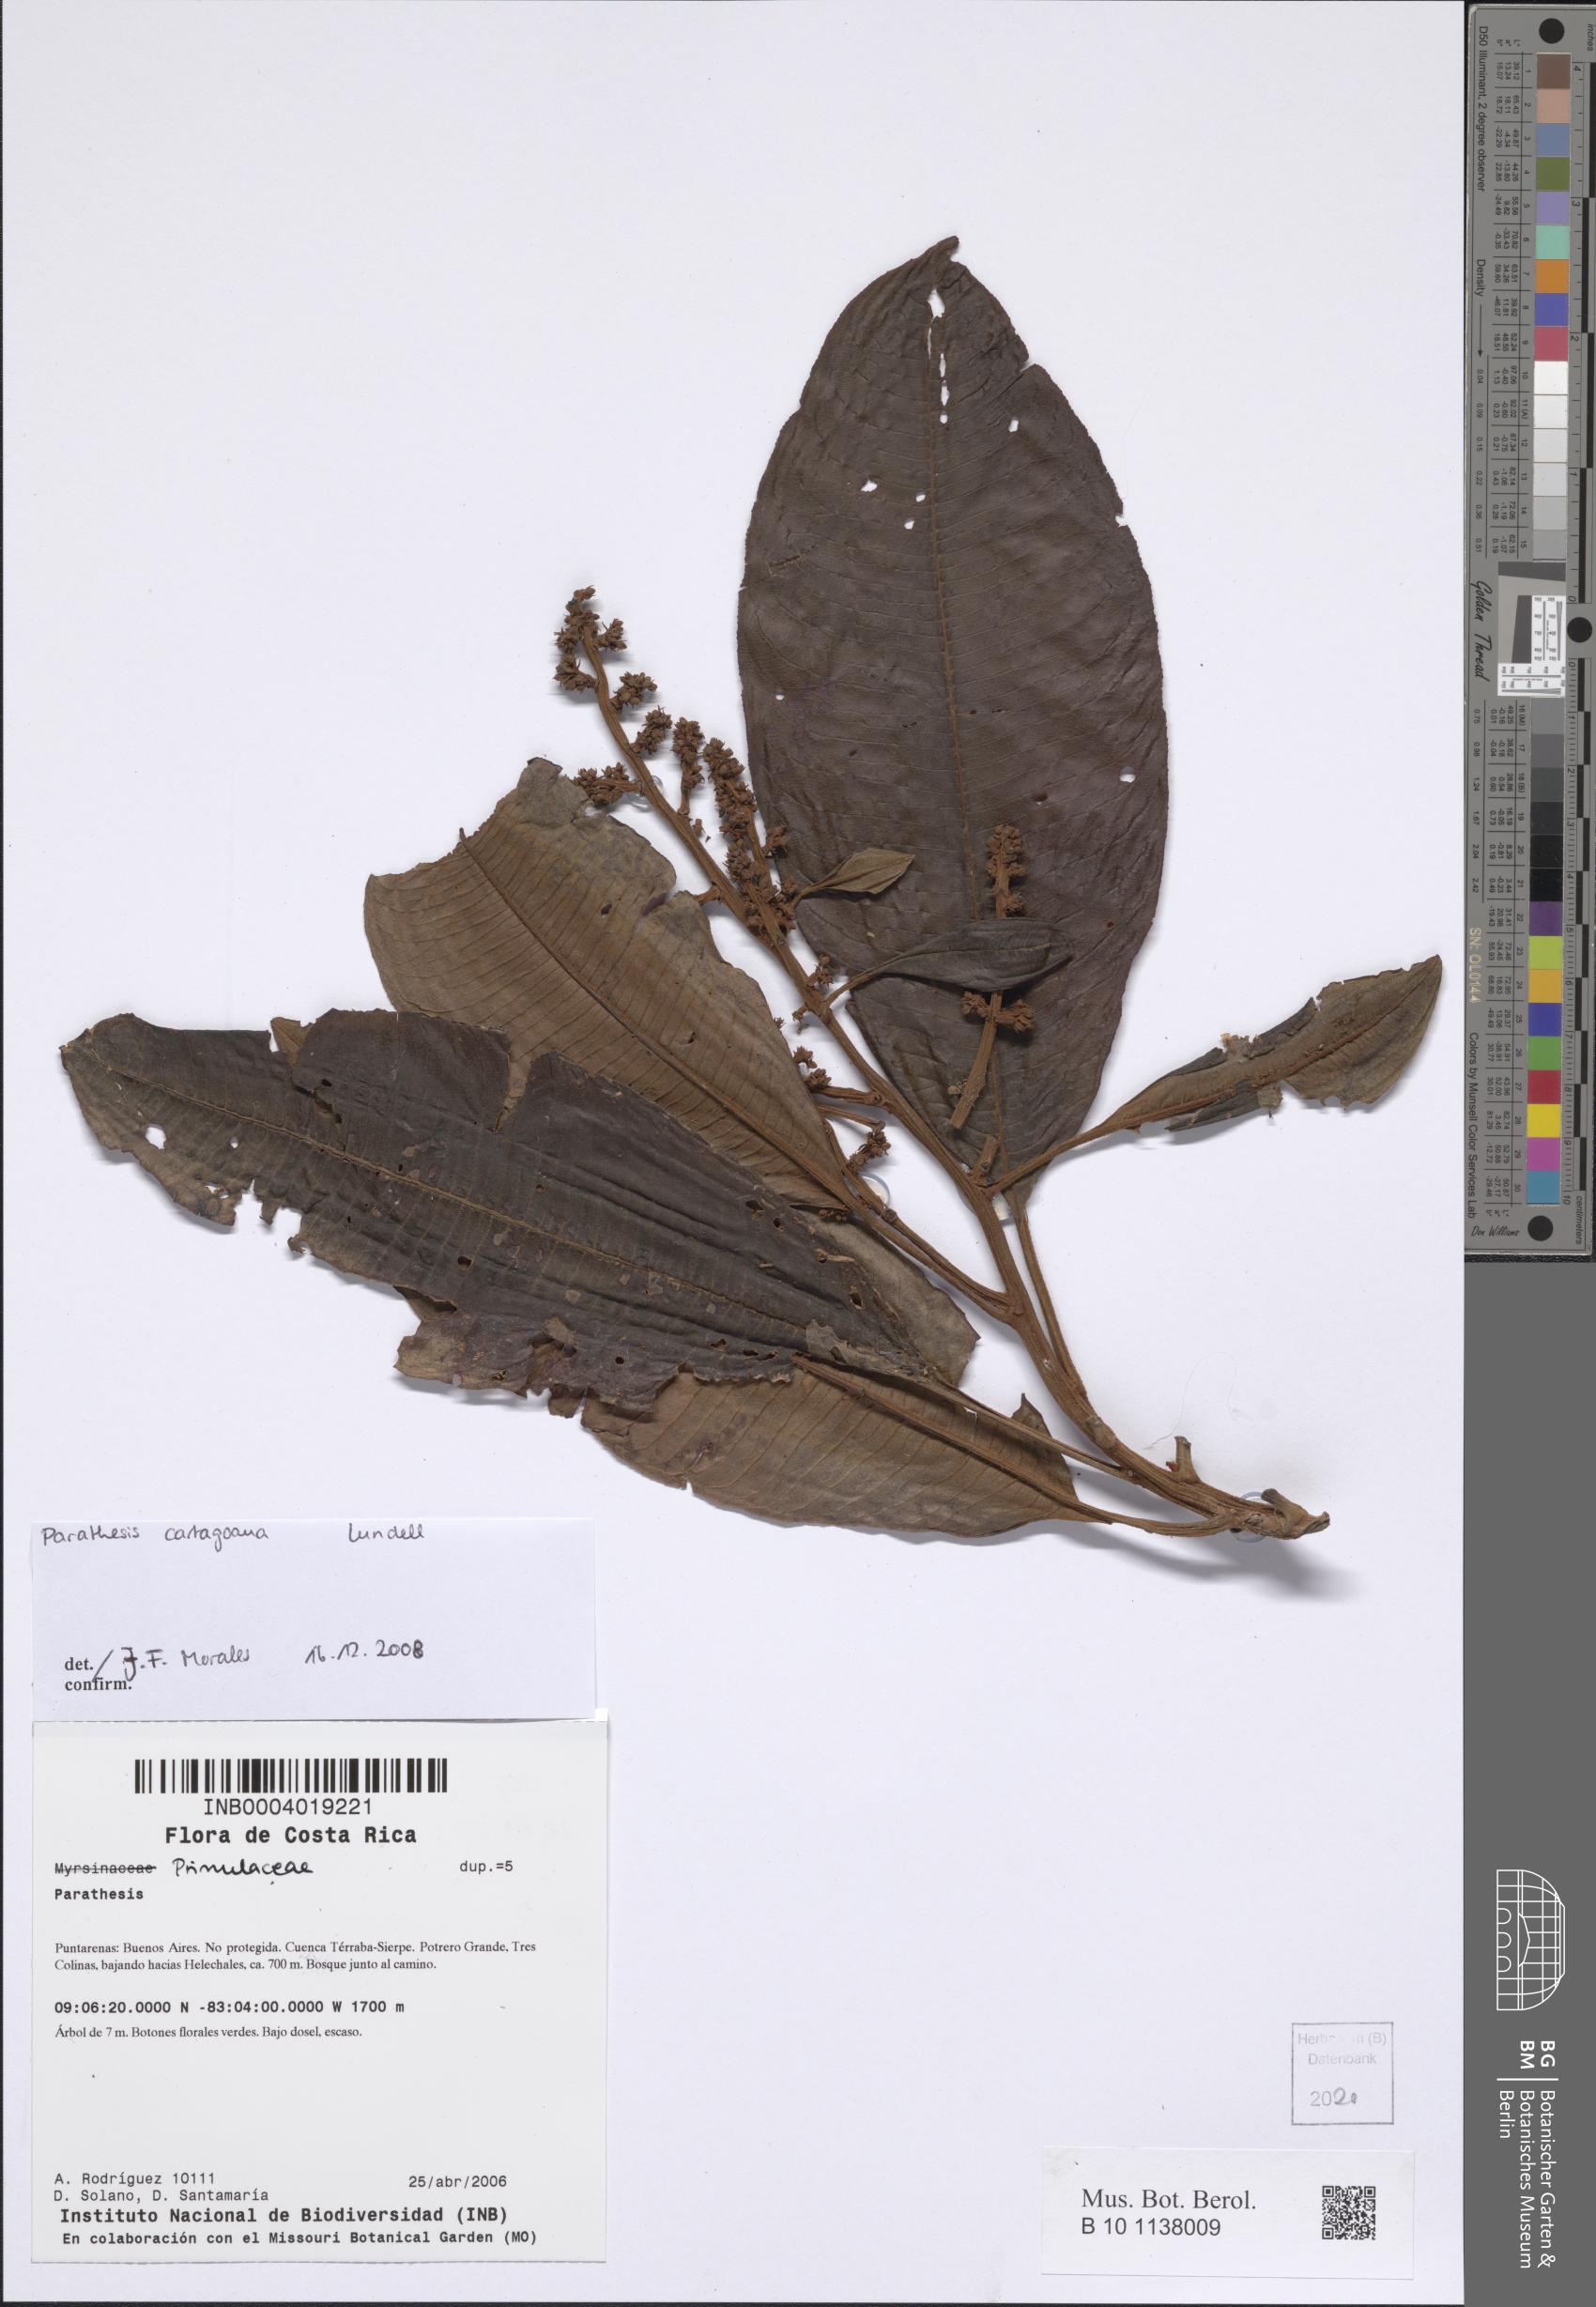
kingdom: Plantae
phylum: Tracheophyta
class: Magnoliopsida
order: Ericales
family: Primulaceae
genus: Parathesis
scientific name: Parathesis cartagoana
